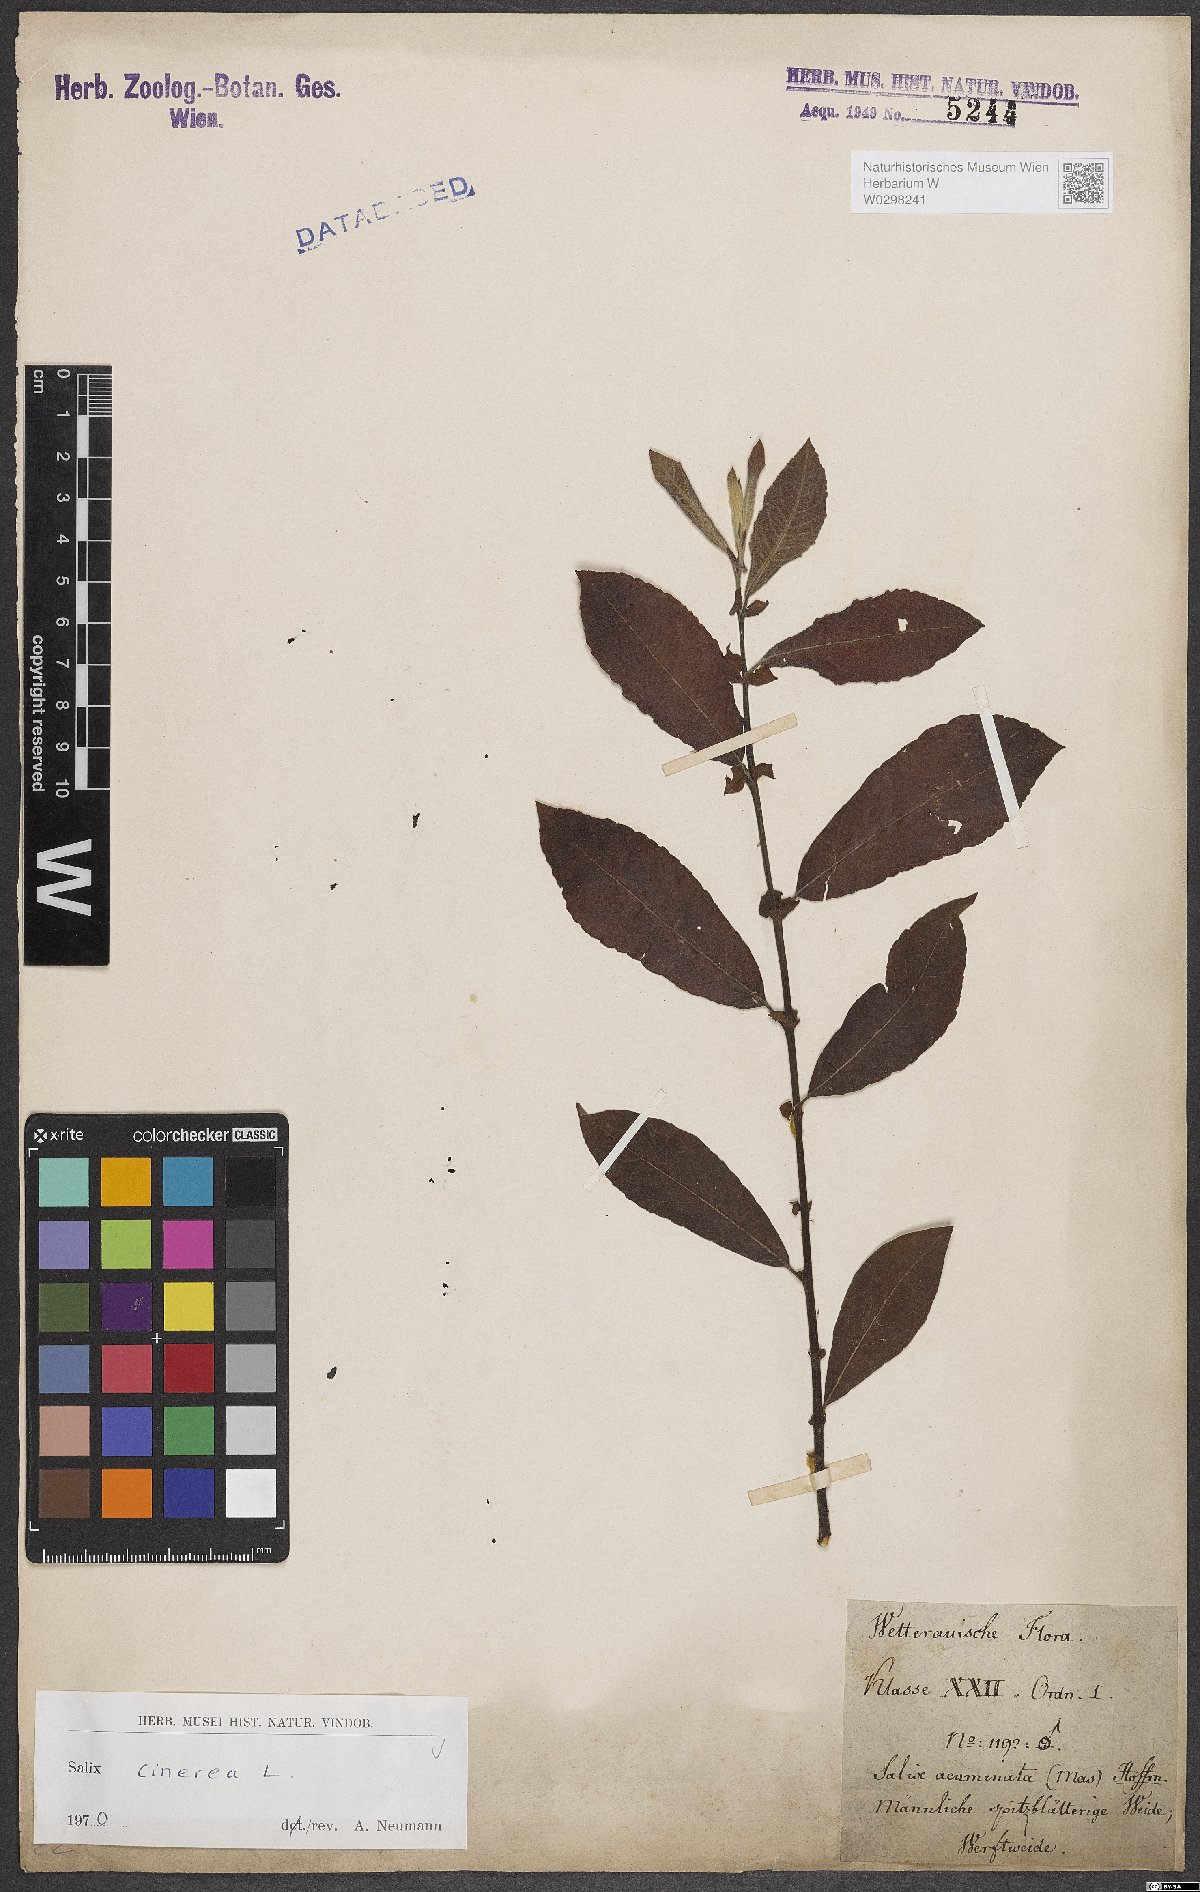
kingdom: Plantae
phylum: Tracheophyta
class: Magnoliopsida
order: Malpighiales
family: Salicaceae
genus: Salix
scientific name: Salix cinerea
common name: Common sallow
